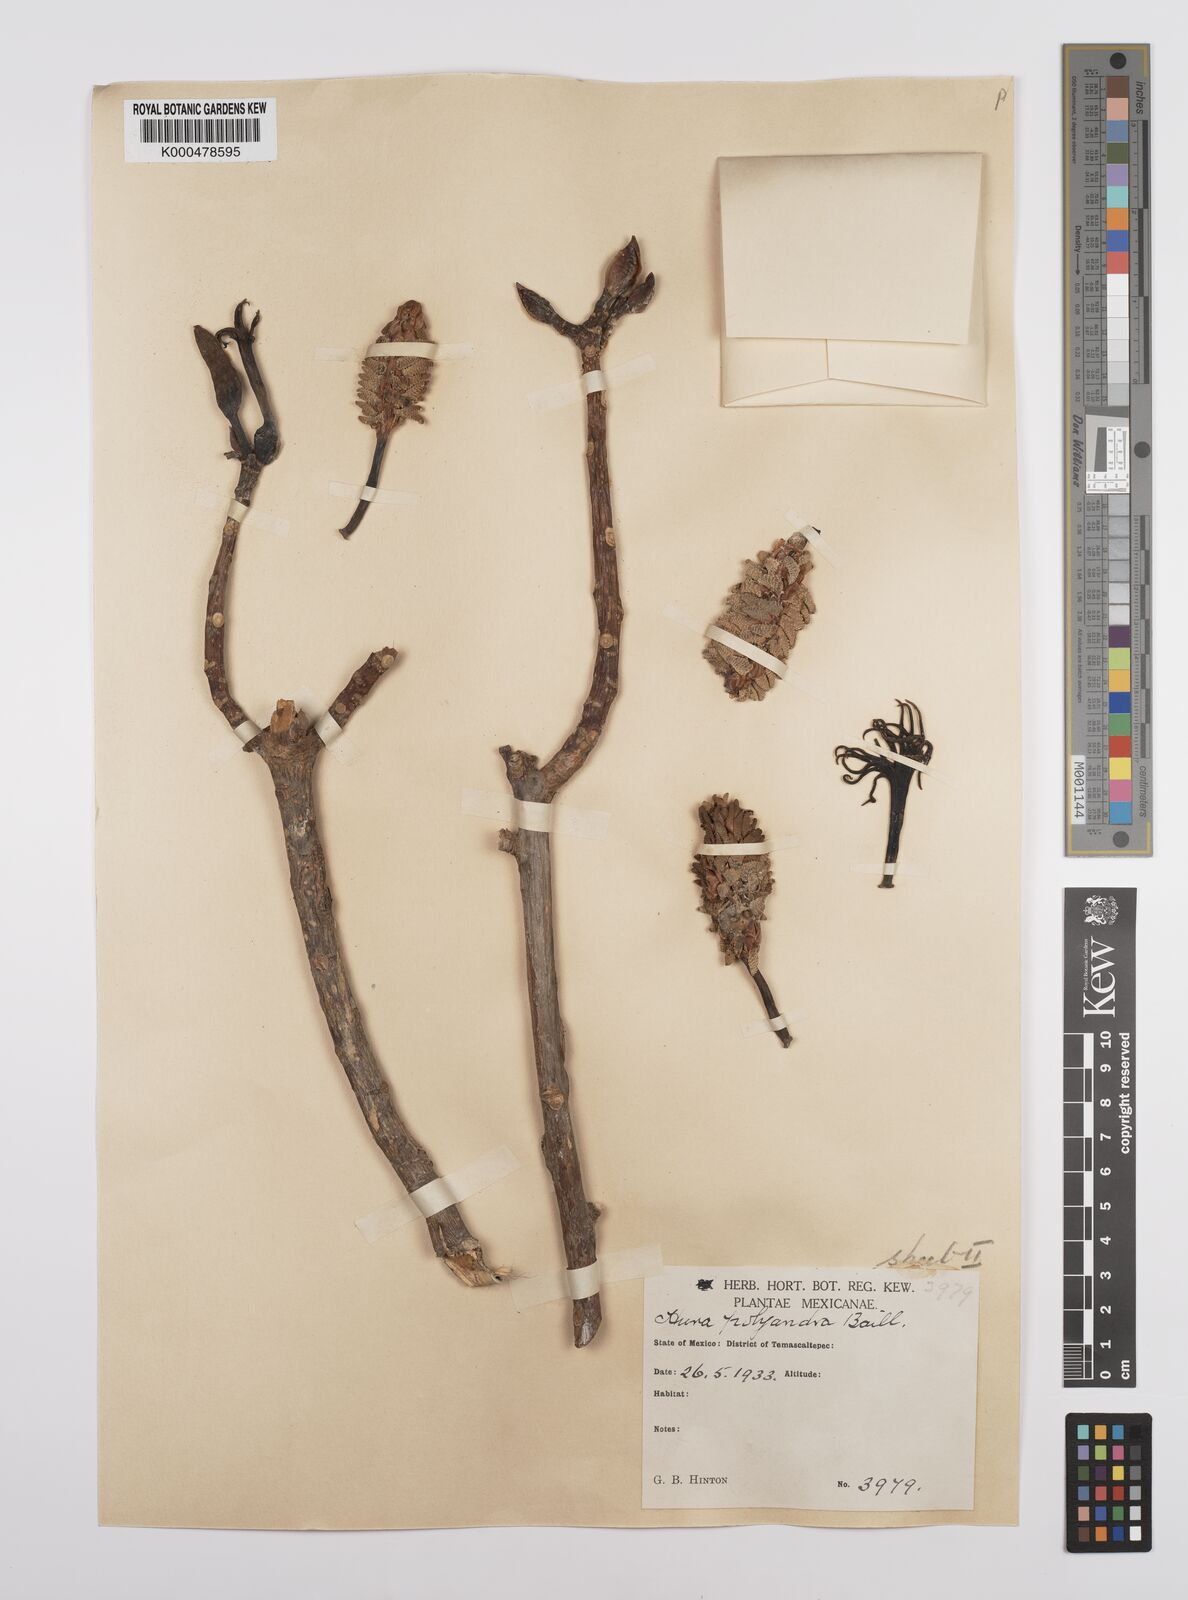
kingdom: Plantae
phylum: Tracheophyta
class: Magnoliopsida
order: Malpighiales
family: Euphorbiaceae
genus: Hura
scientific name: Hura polyandra
